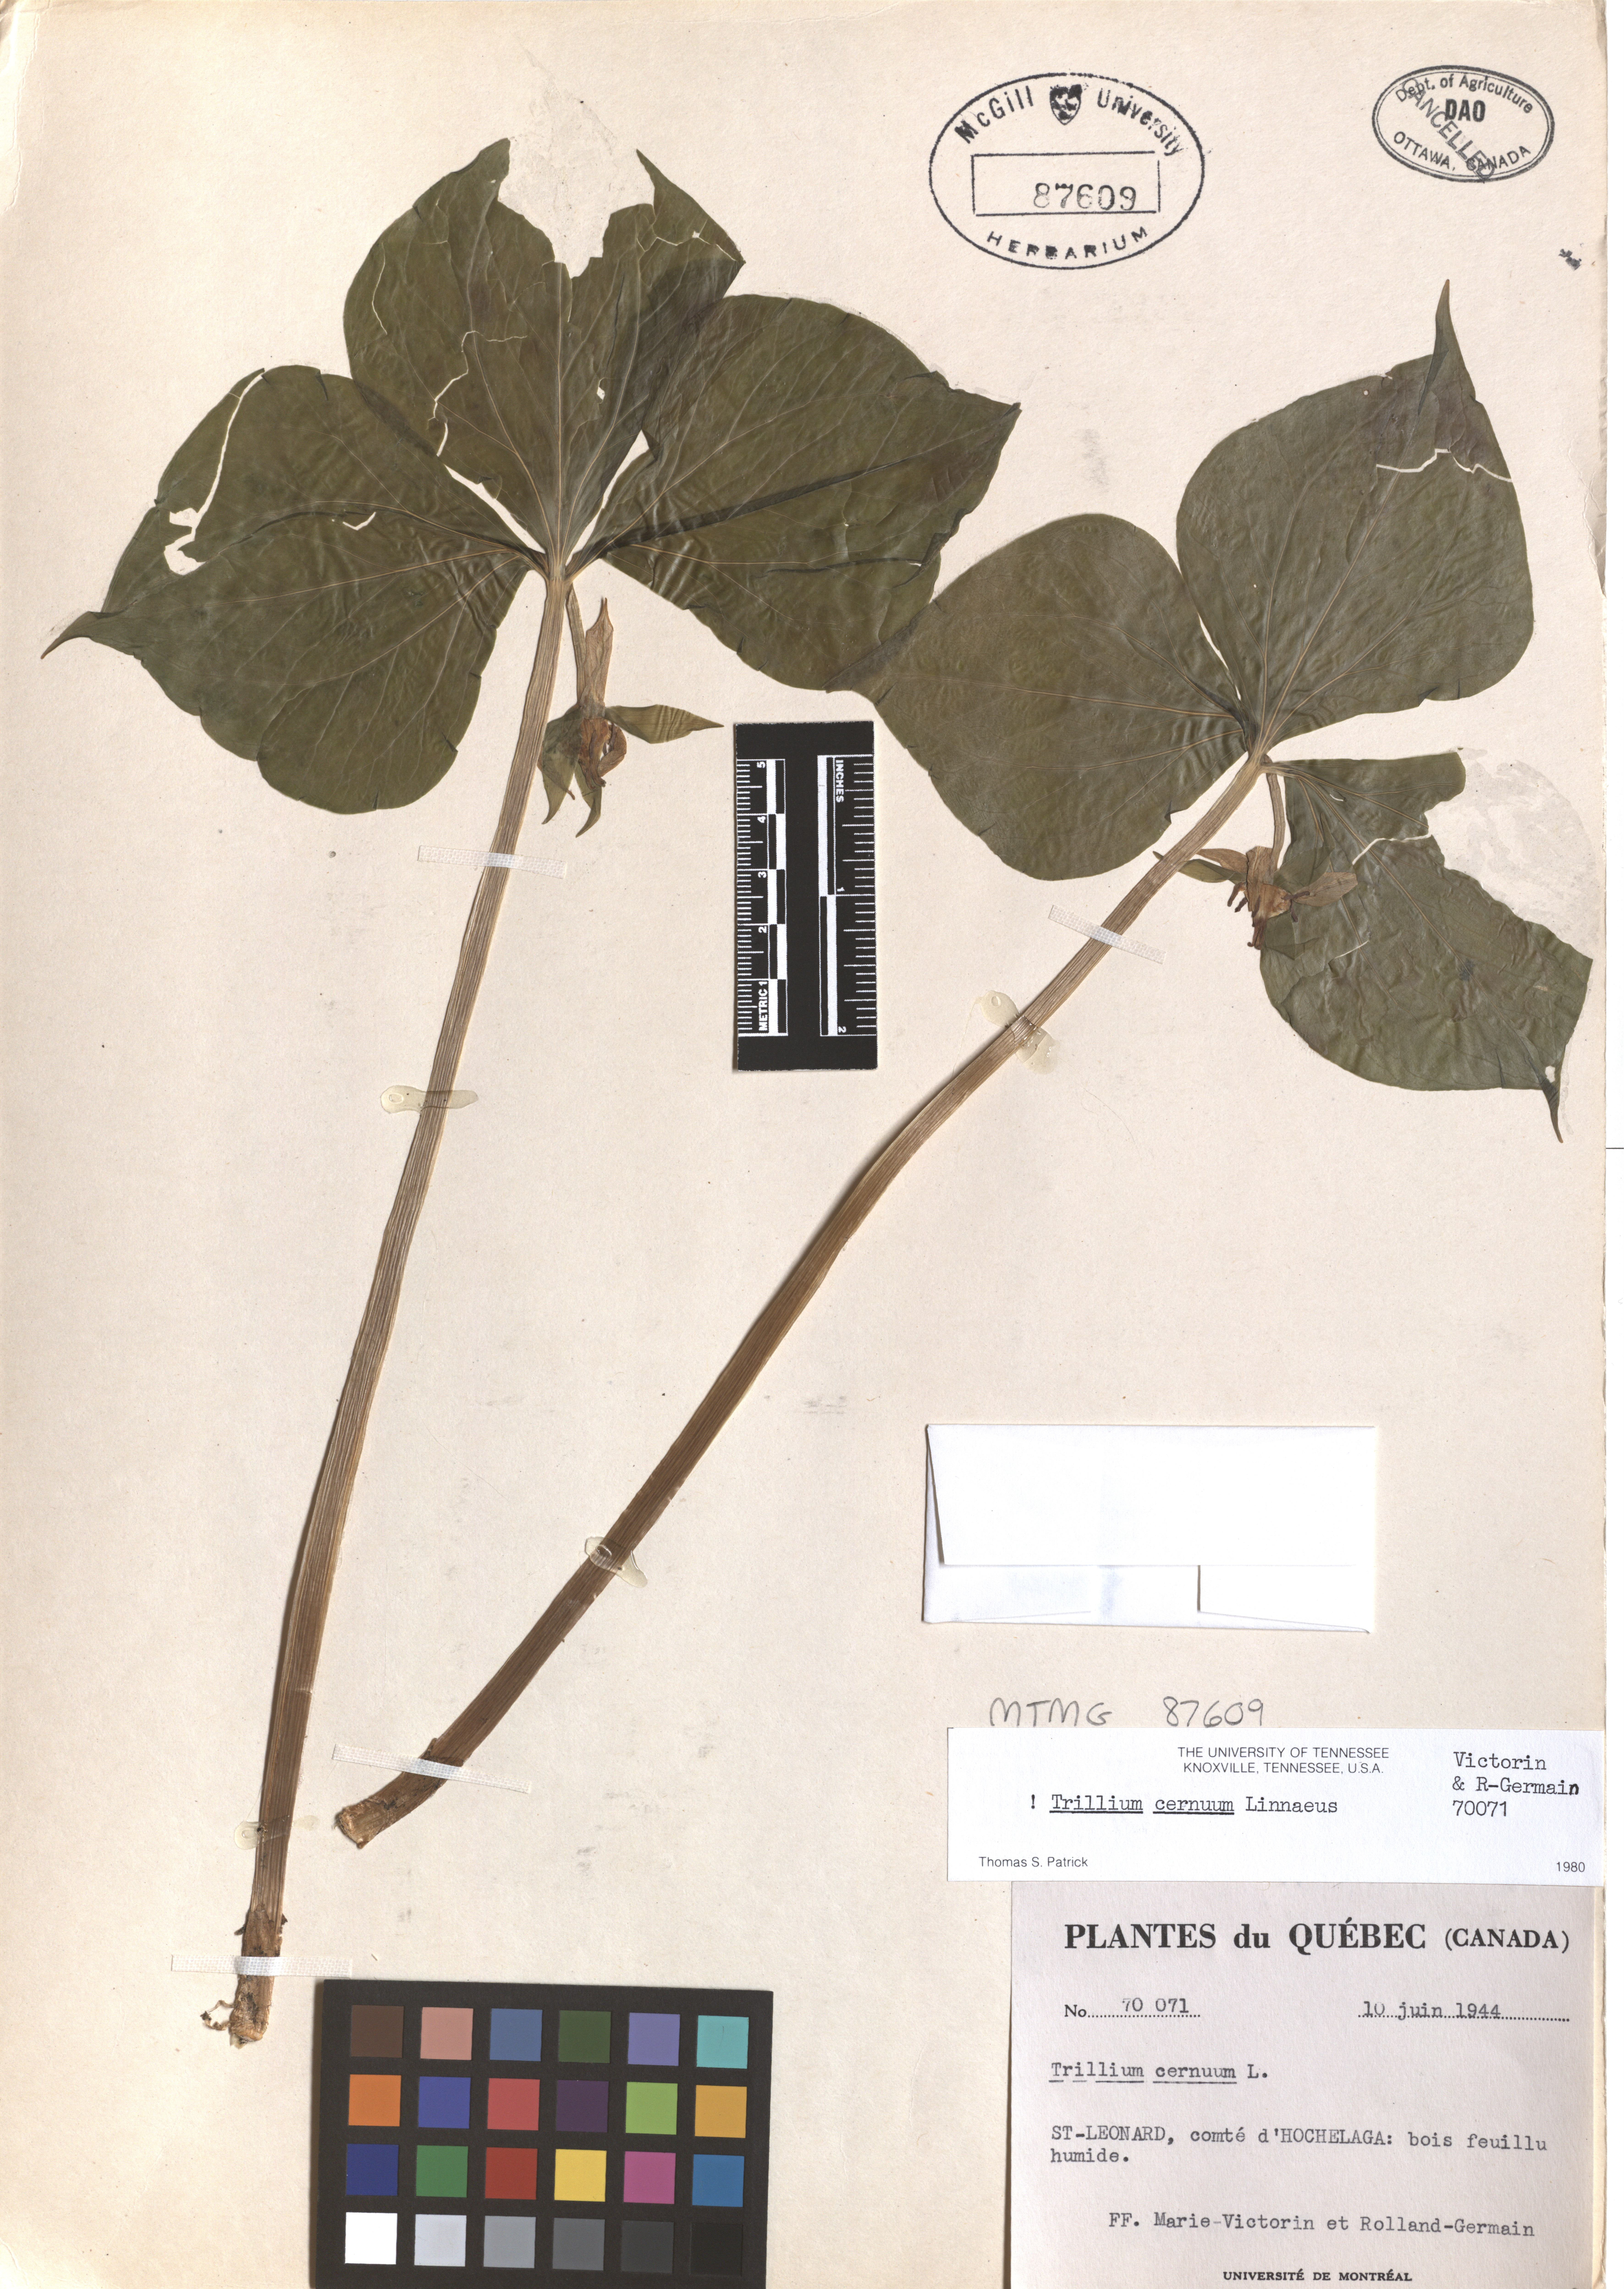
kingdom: Plantae
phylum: Tracheophyta
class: Liliopsida
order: Liliales
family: Melanthiaceae
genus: Trillium
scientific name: Trillium cernuum
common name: Nodding trillium
